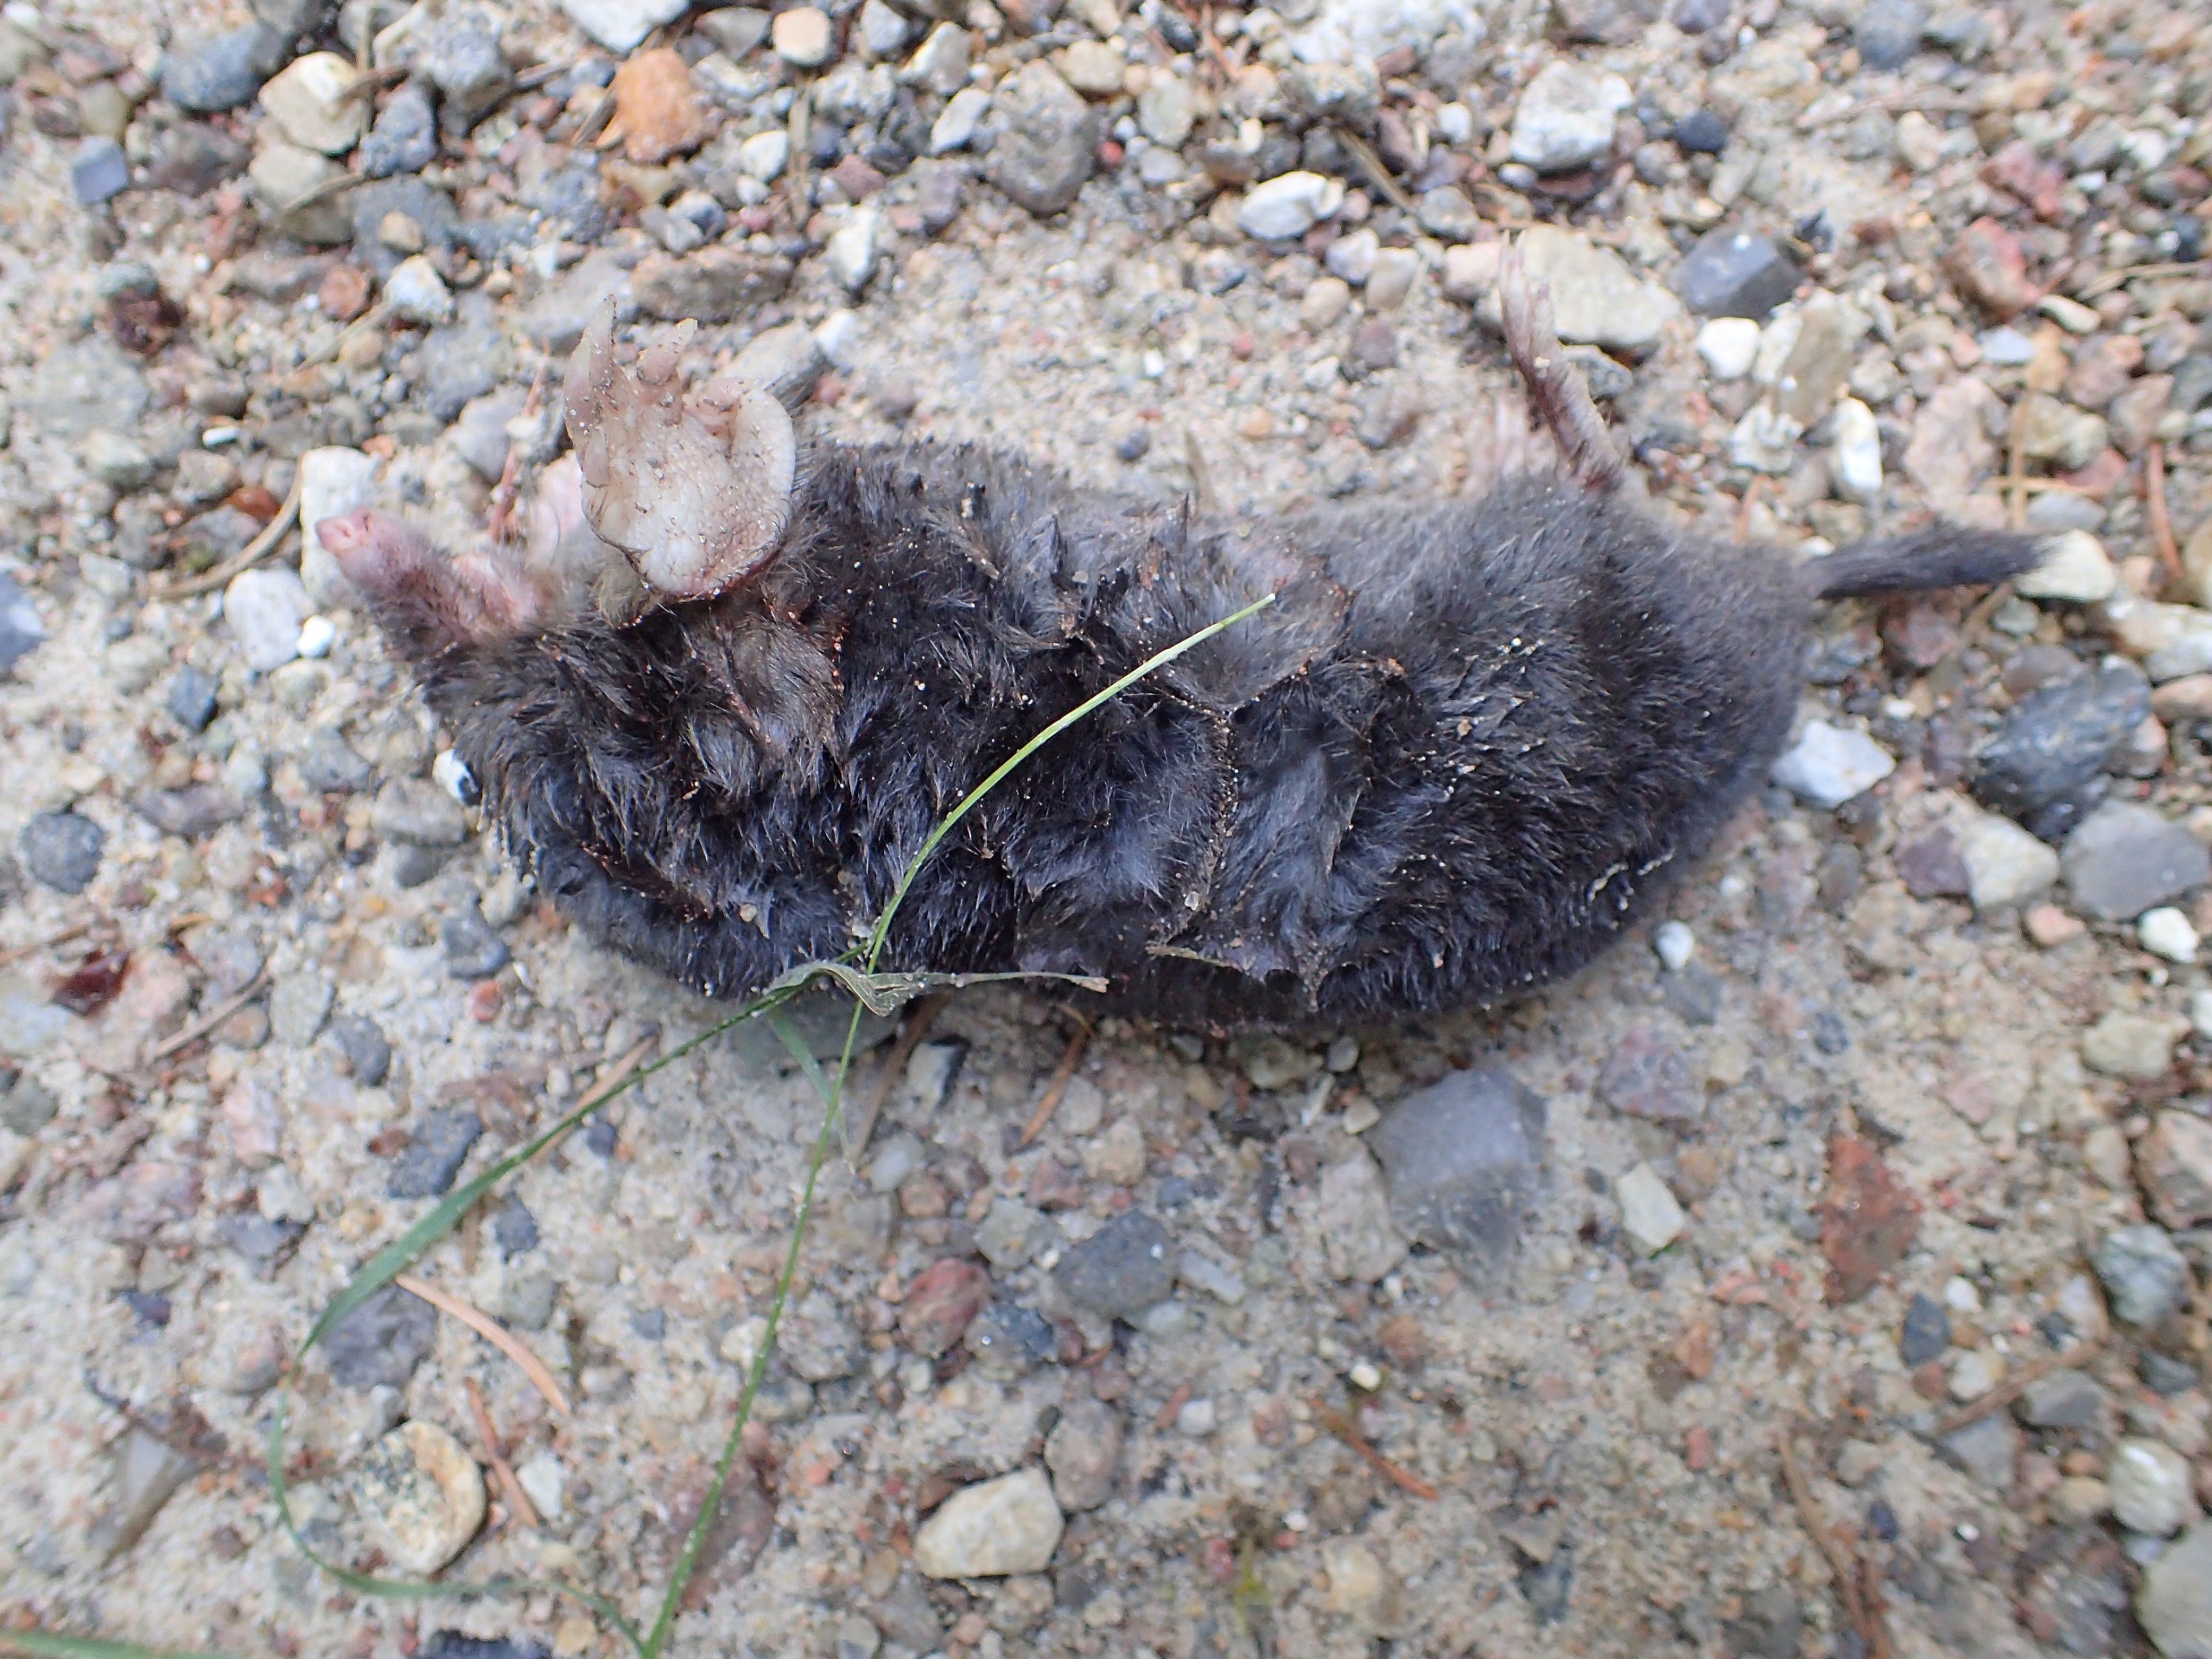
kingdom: Animalia
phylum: Chordata
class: Mammalia
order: Soricomorpha
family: Talpidae
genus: Talpa
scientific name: Talpa europaea
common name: Muldvarp
